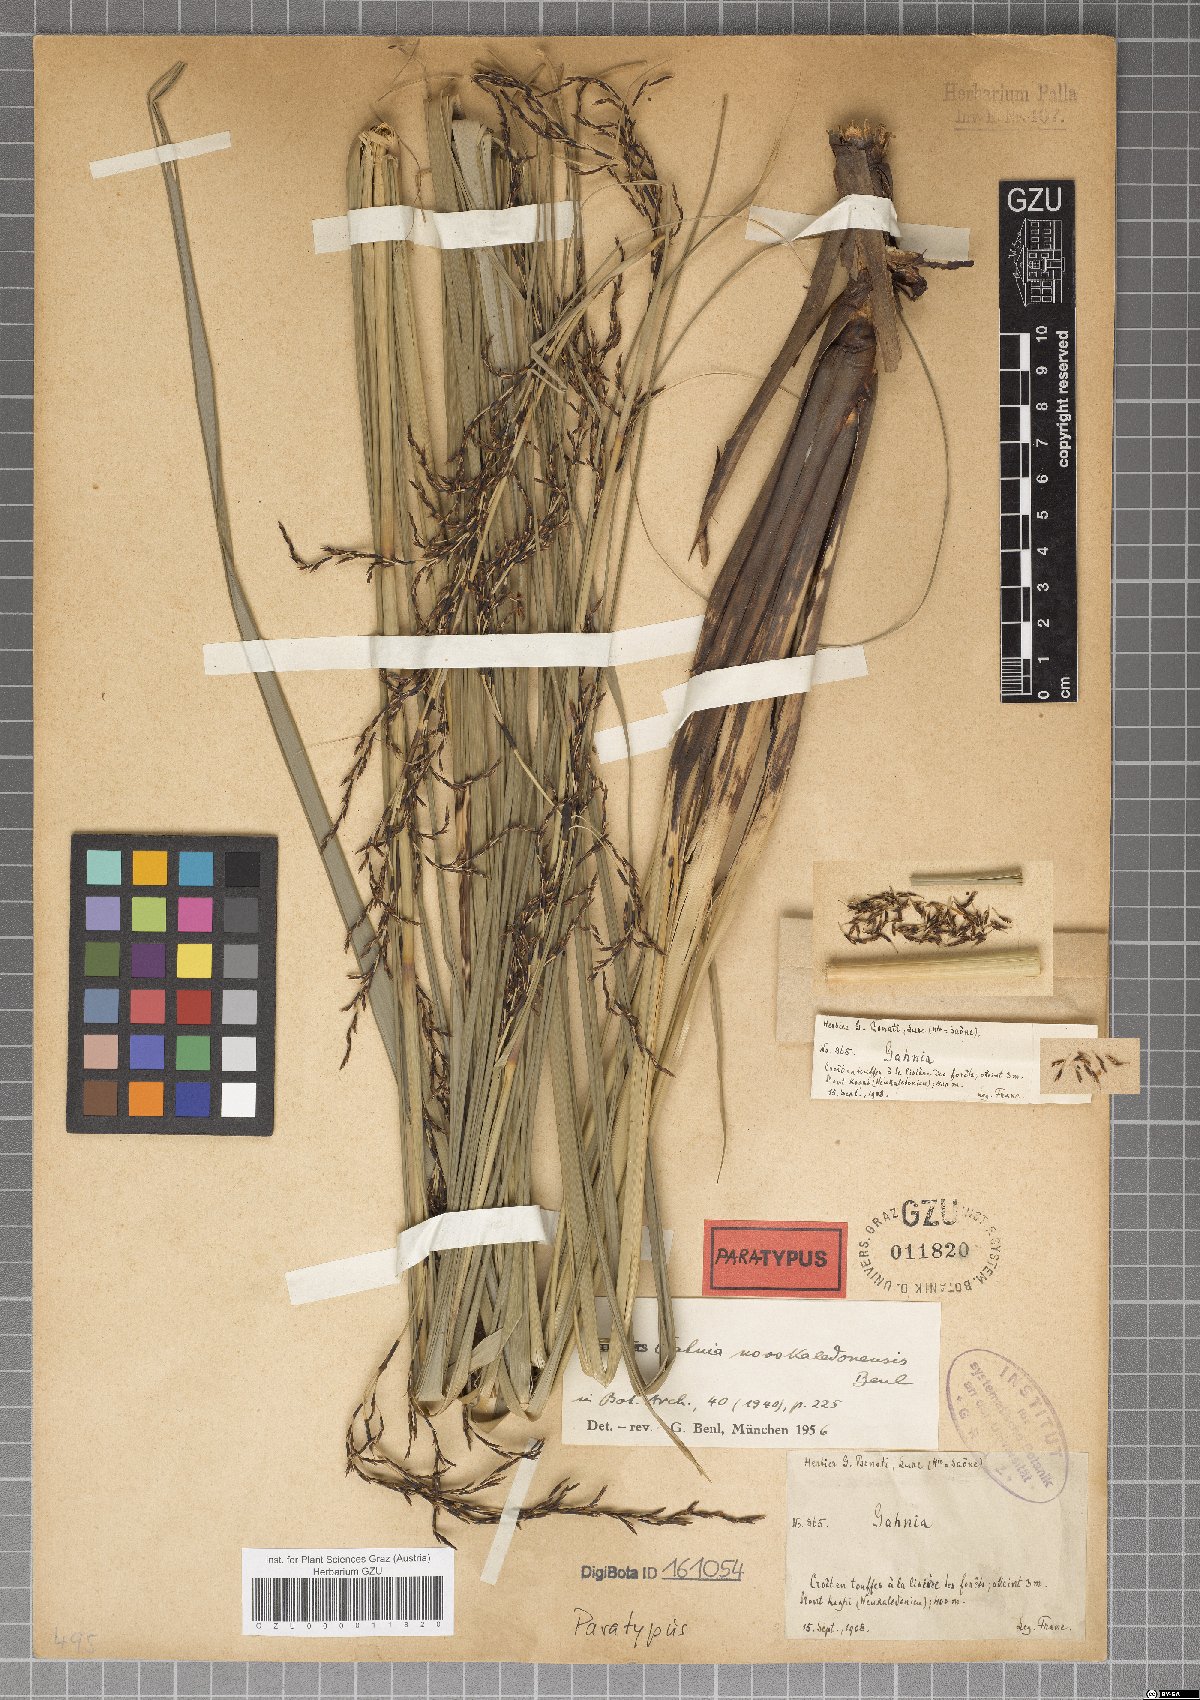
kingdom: Plantae
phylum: Tracheophyta
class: Liliopsida
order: Poales
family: Cyperaceae
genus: Gahnia
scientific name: Gahnia novocaledonensis
